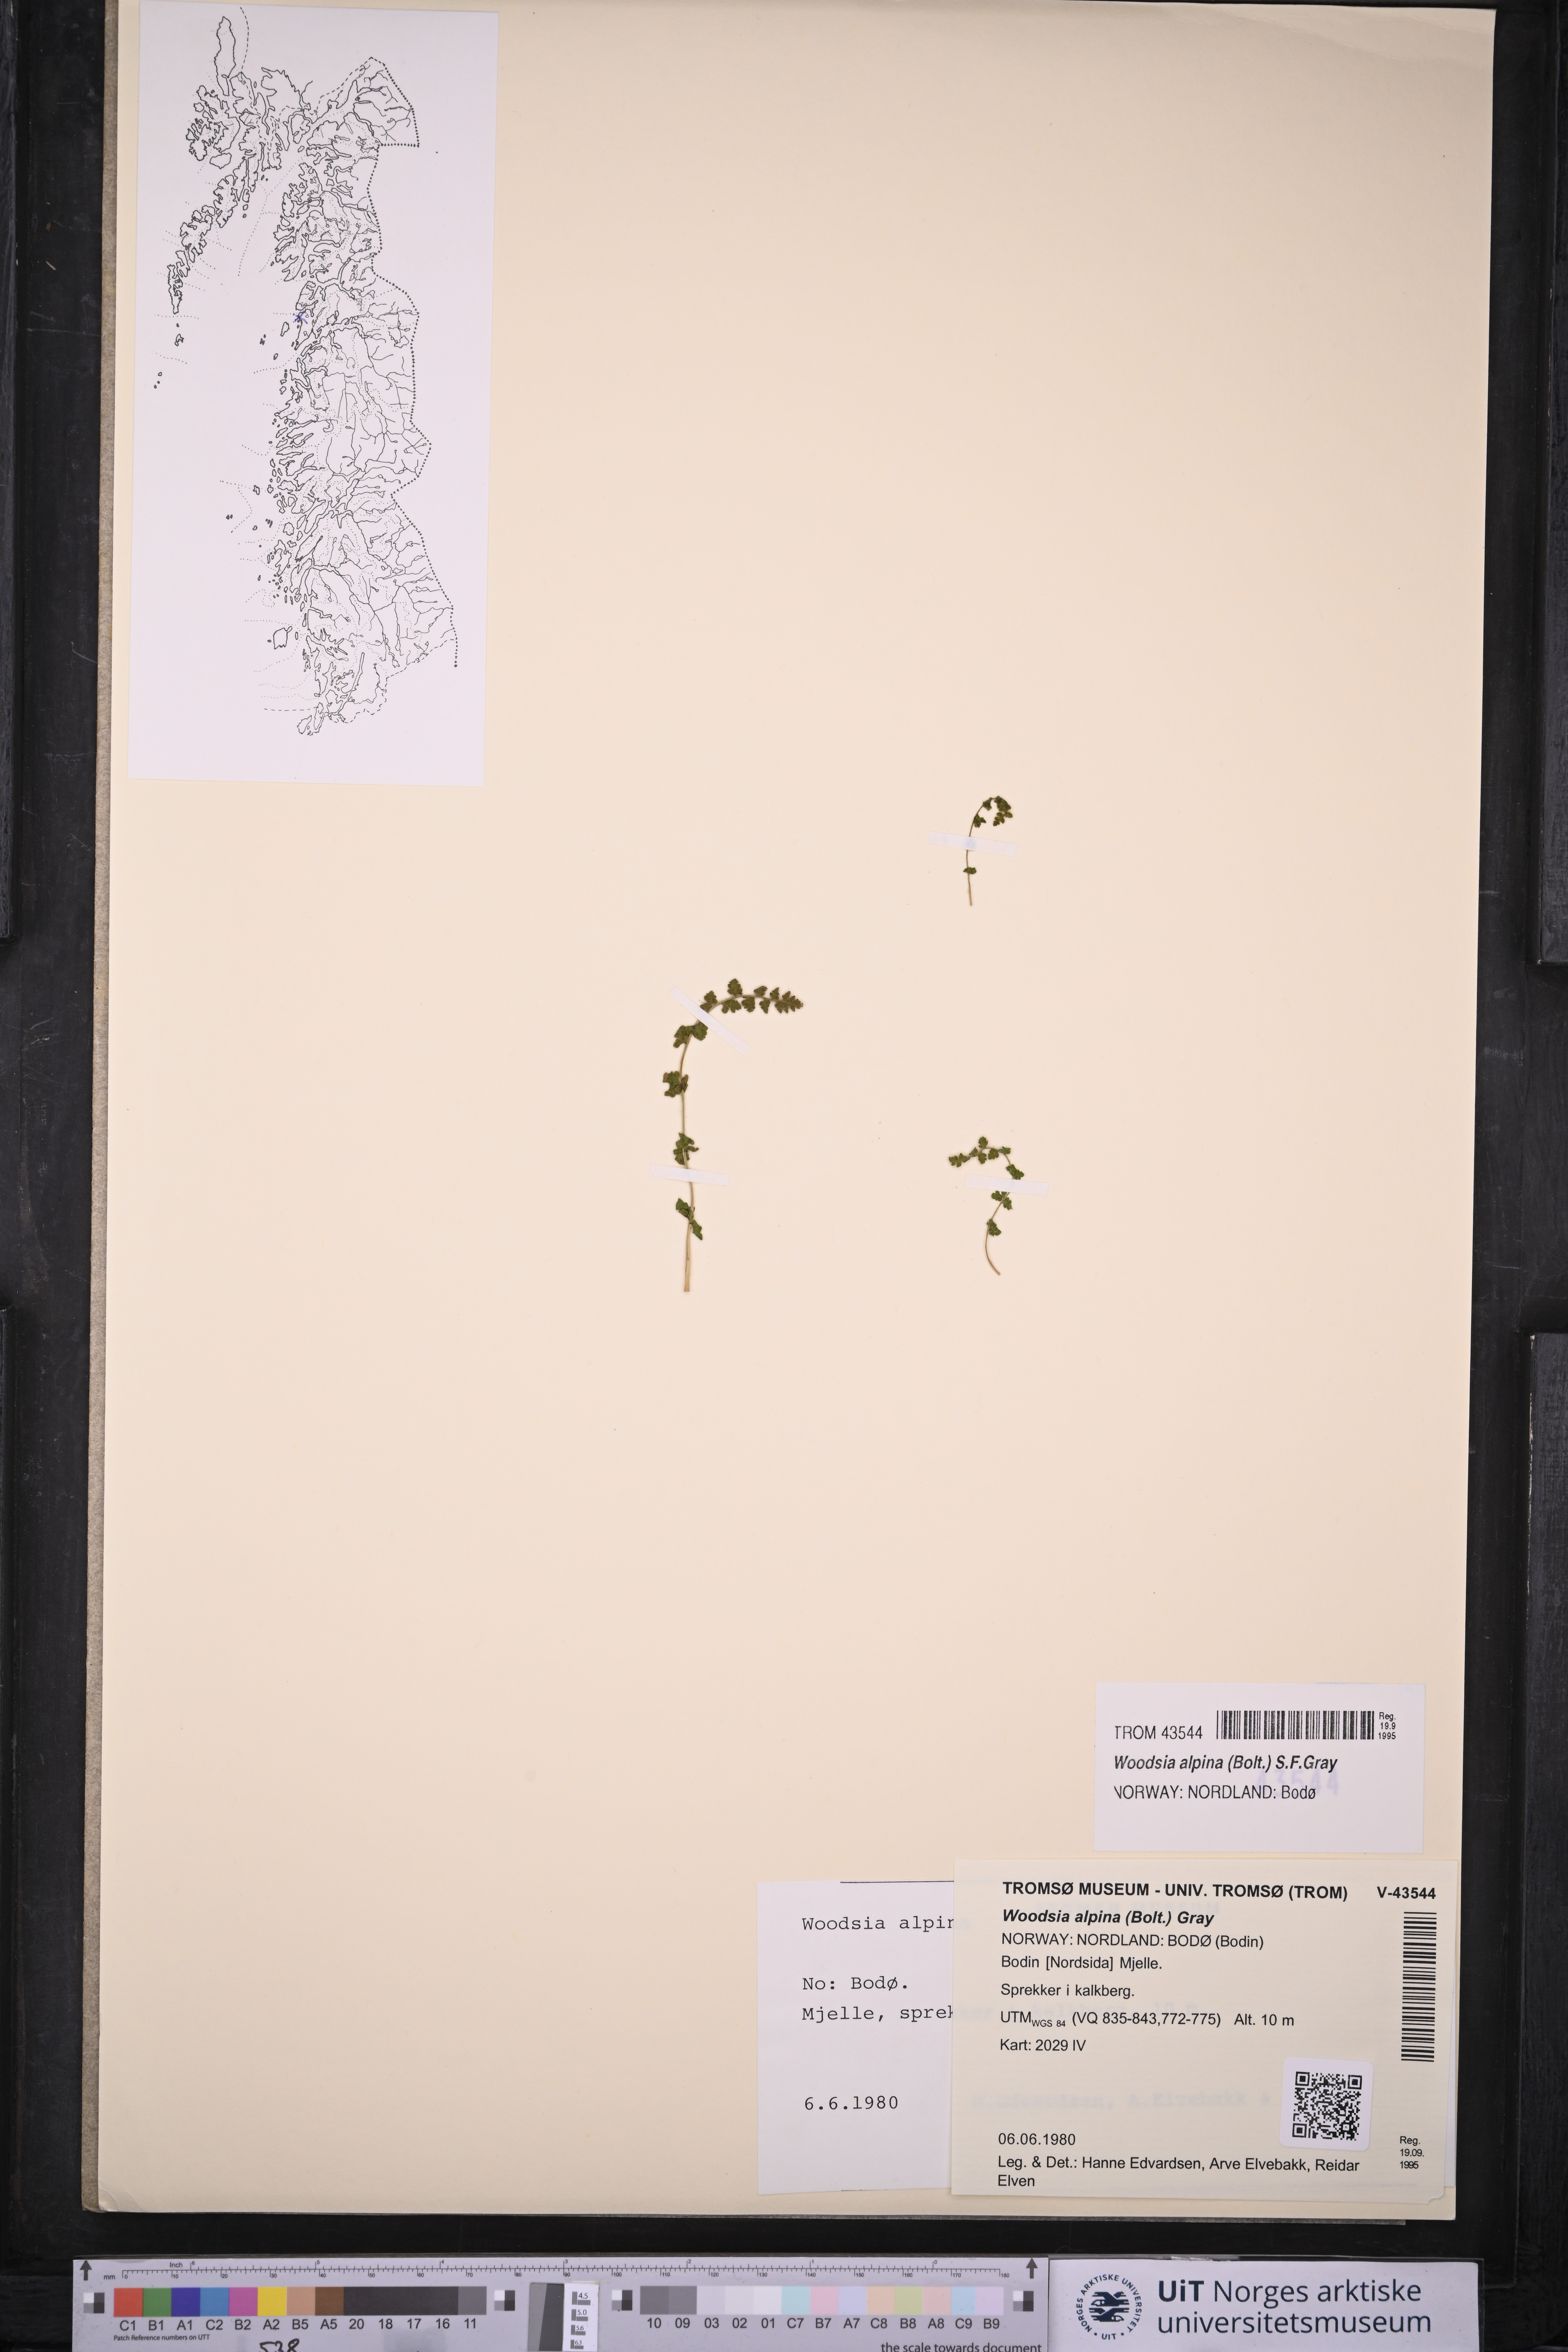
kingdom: Plantae
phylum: Tracheophyta
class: Polypodiopsida
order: Polypodiales
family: Woodsiaceae
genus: Woodsia
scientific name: Woodsia alpina
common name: Alpine woodsia
